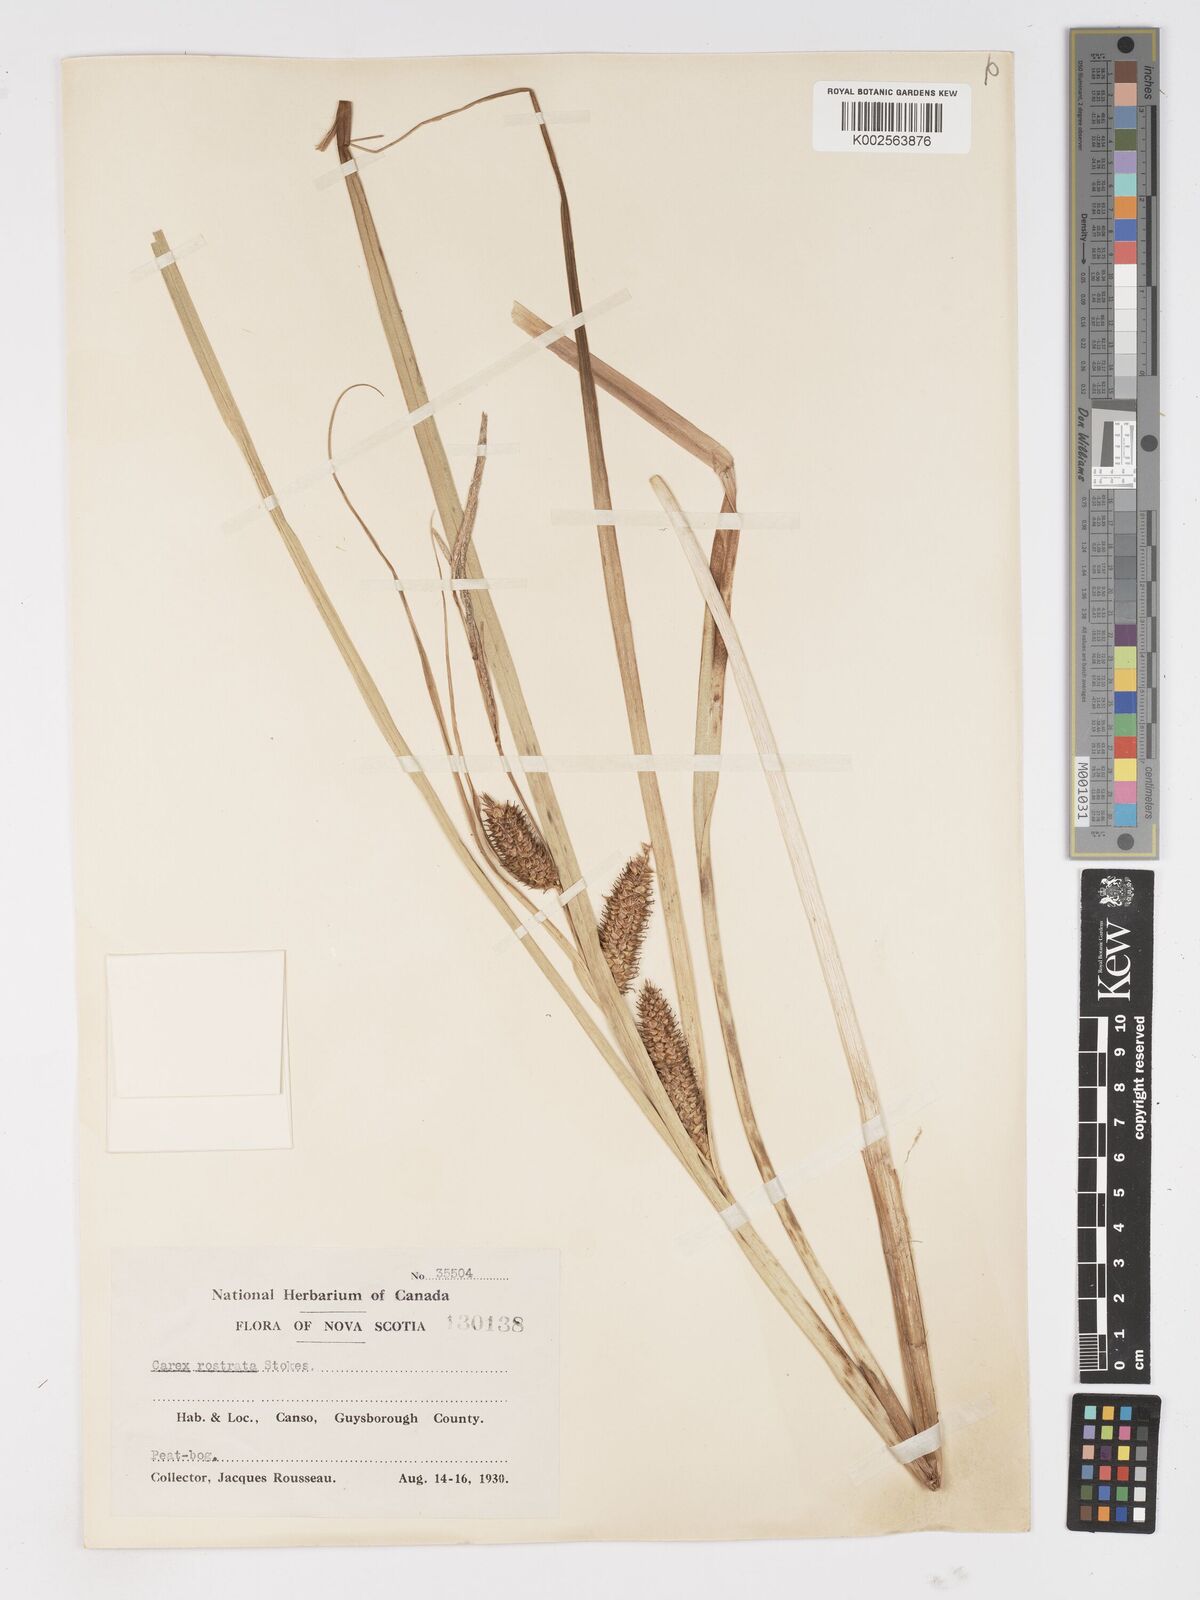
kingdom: Plantae
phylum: Tracheophyta
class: Liliopsida
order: Poales
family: Cyperaceae
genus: Carex
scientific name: Carex rostrata
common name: Bottle sedge
